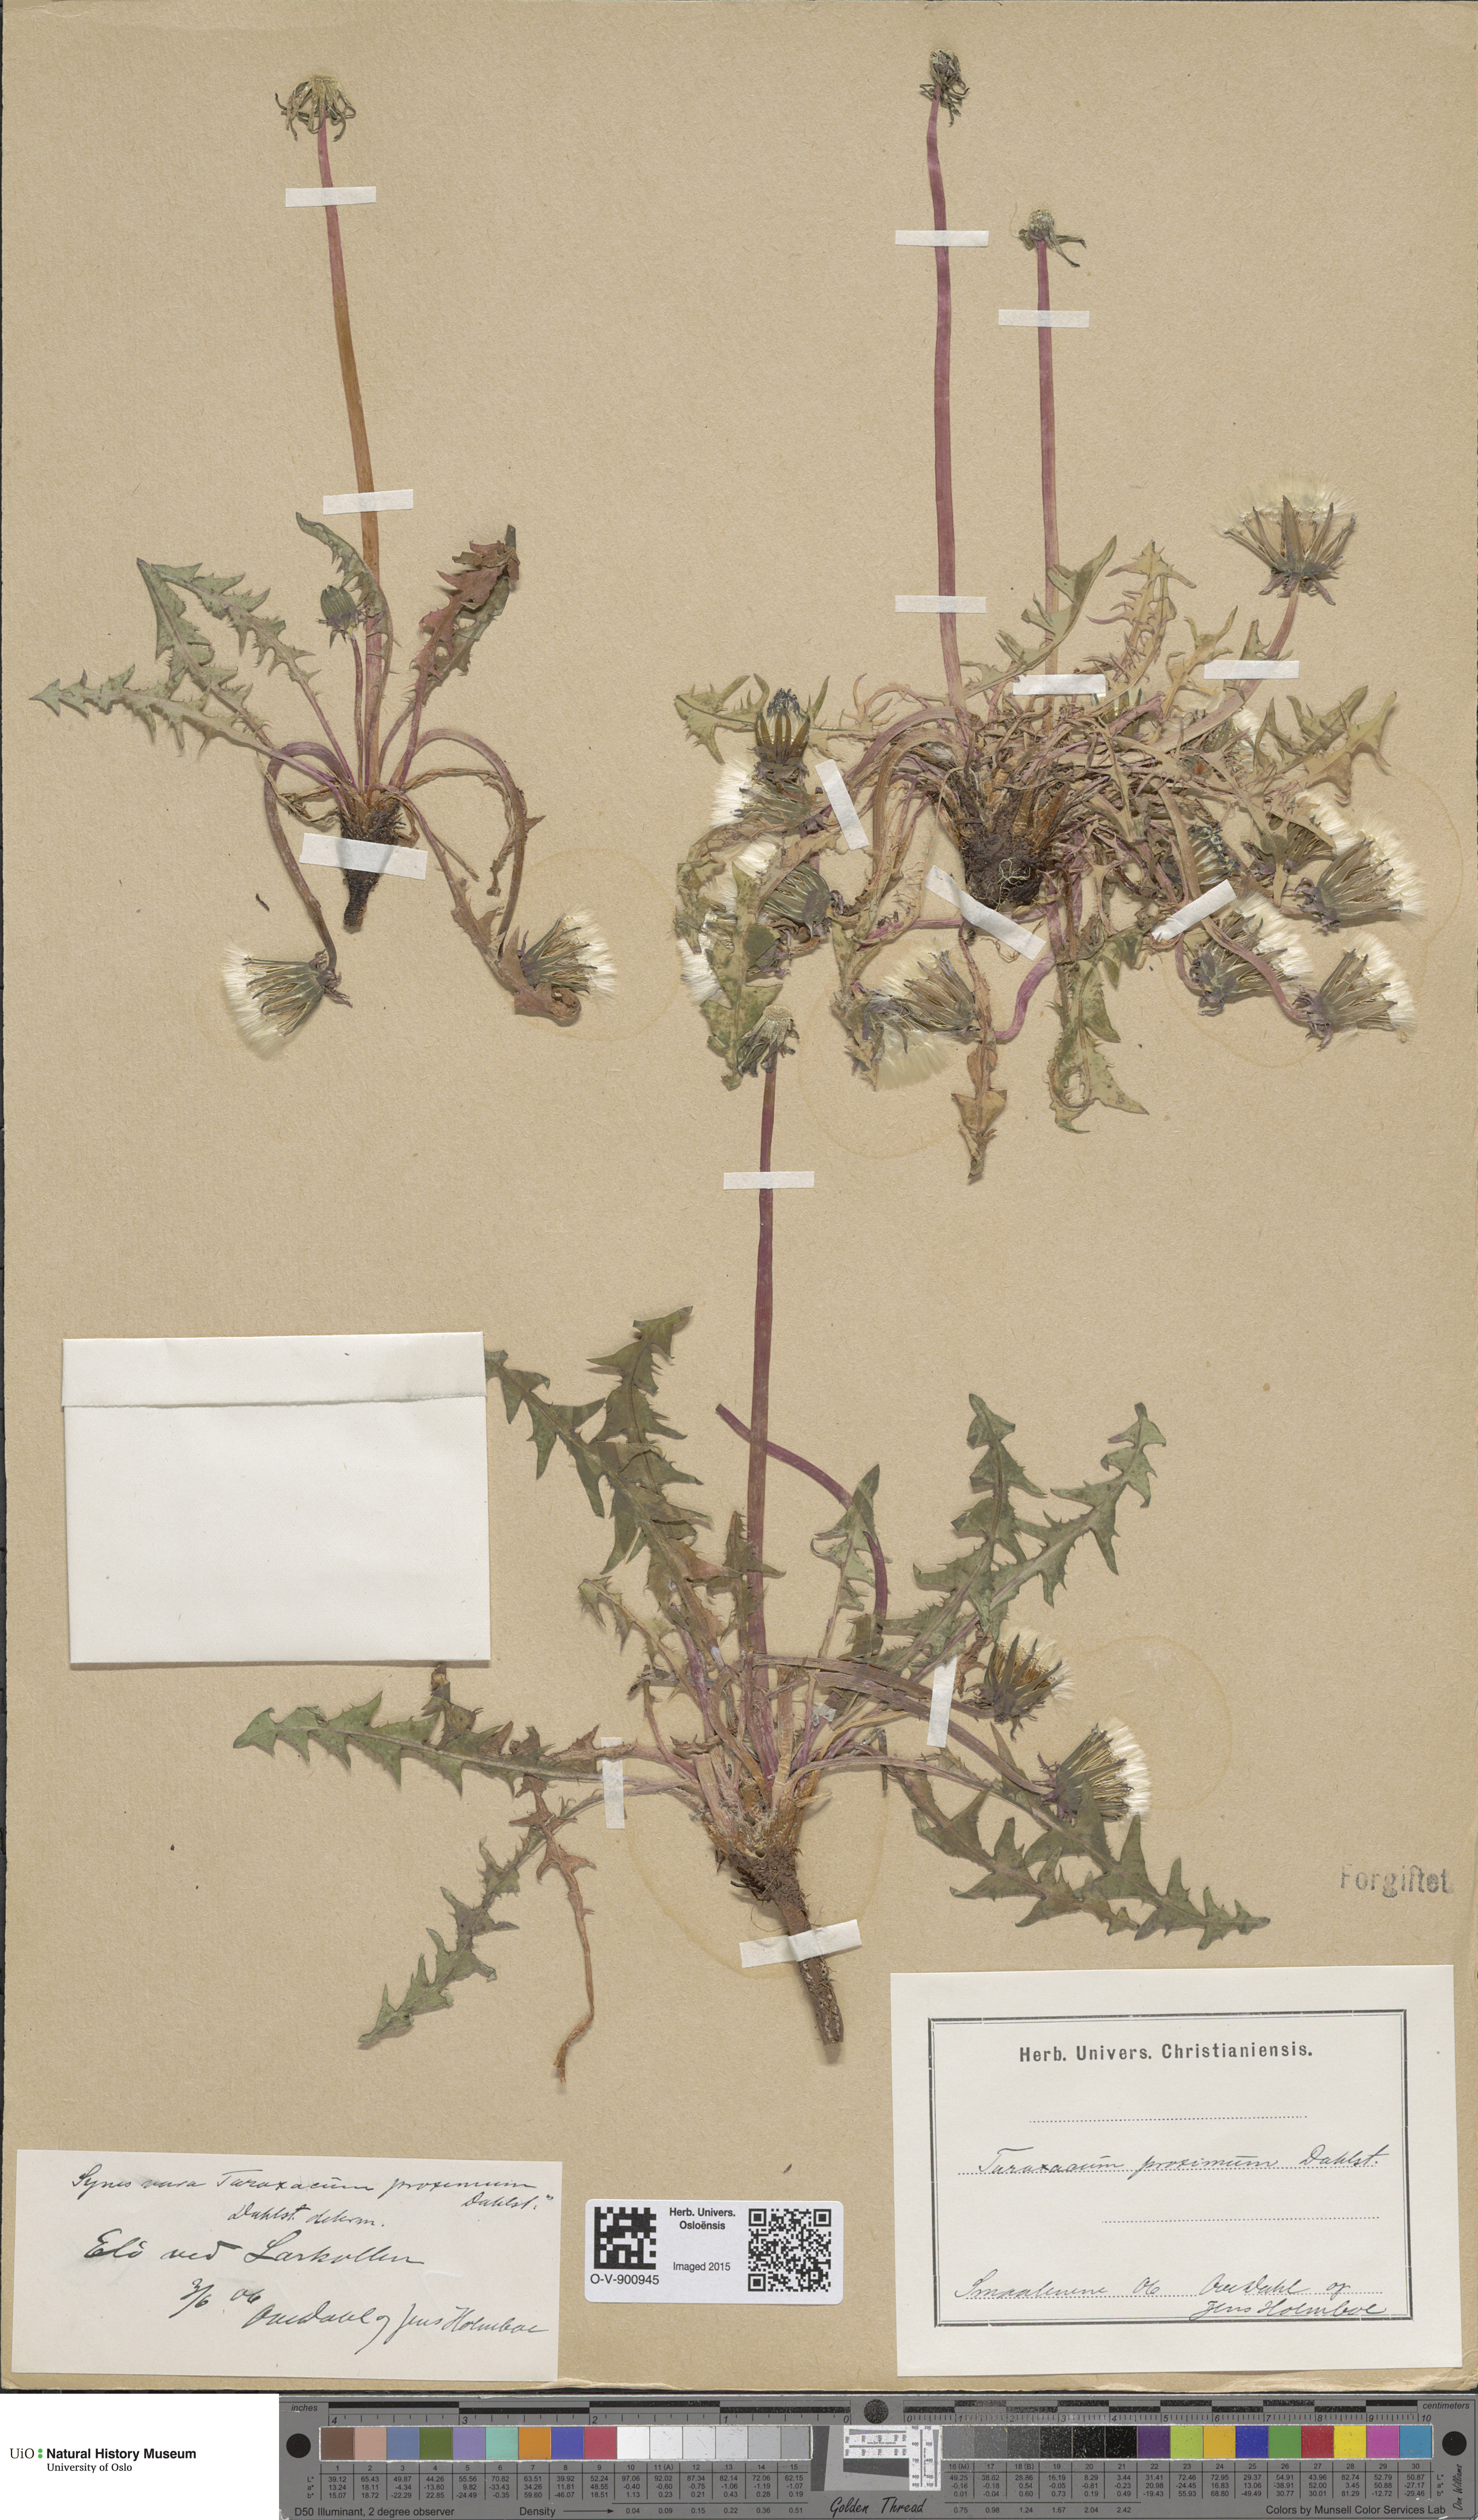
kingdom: Plantae
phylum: Tracheophyta
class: Magnoliopsida
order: Asterales
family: Asteraceae
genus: Taraxacum
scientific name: Taraxacum proximum
